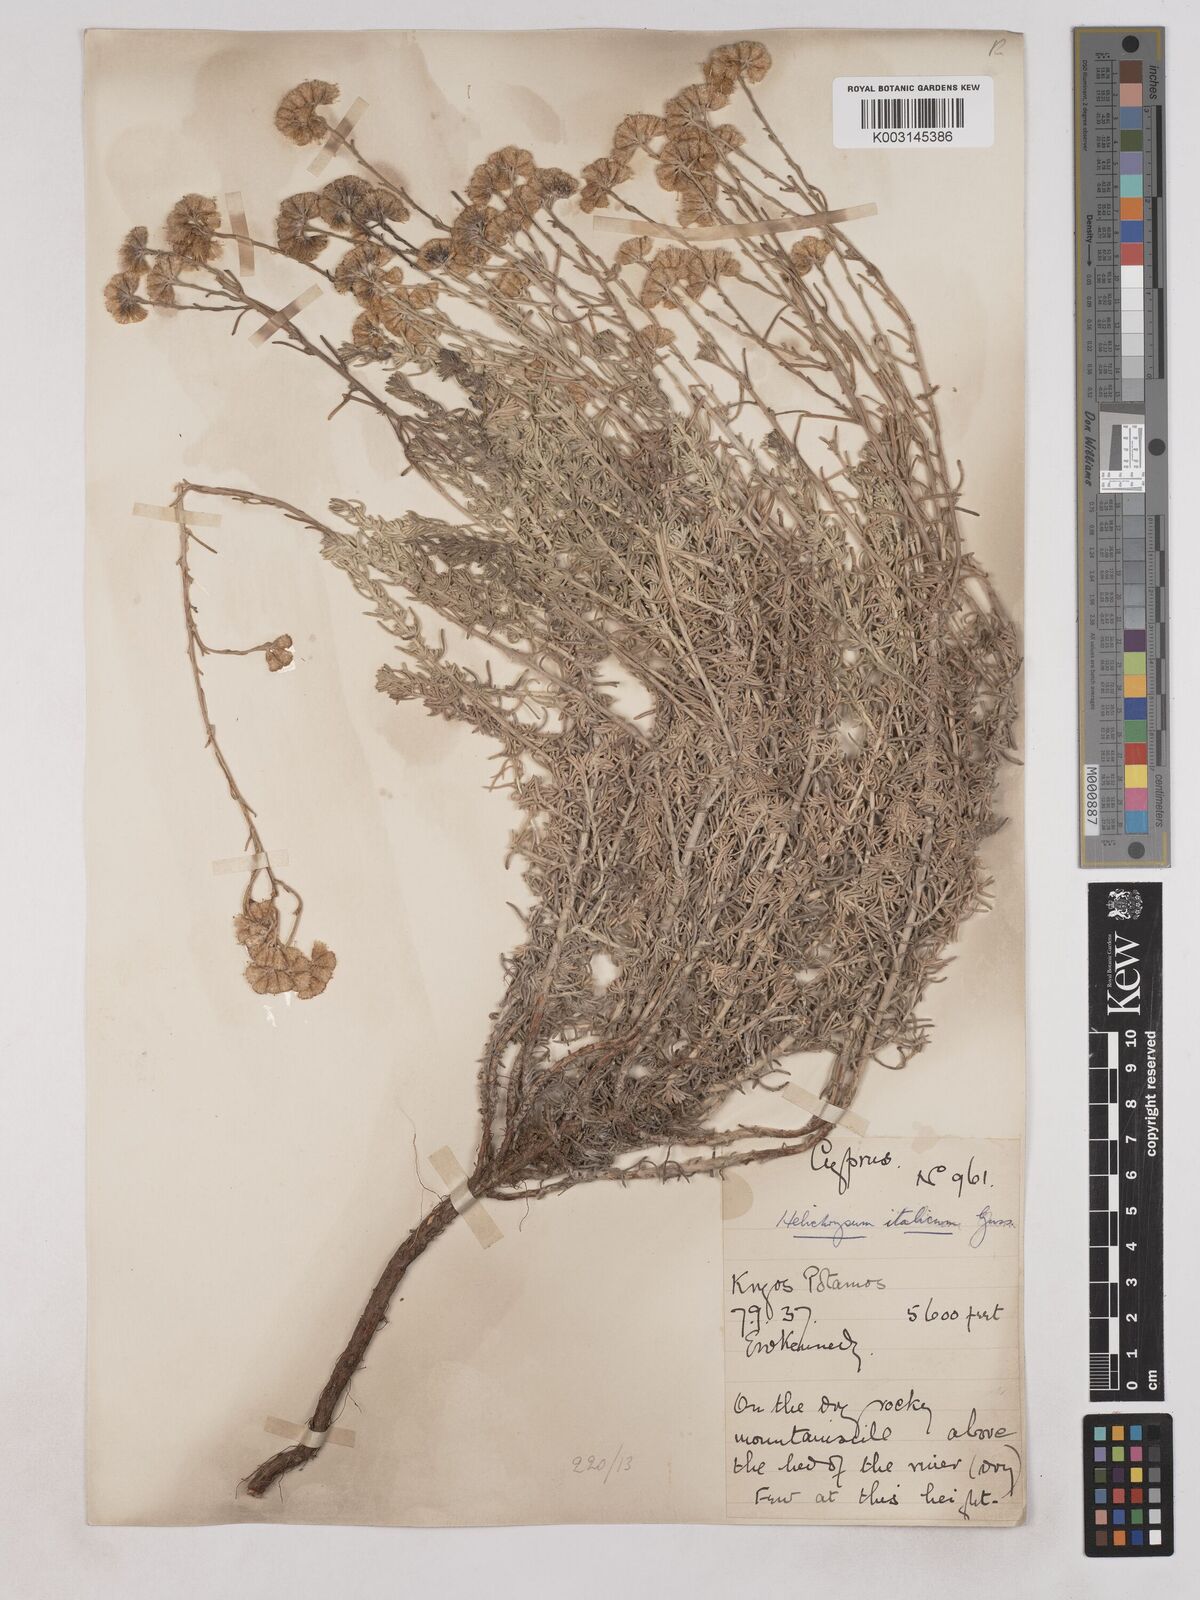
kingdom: Plantae
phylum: Tracheophyta
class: Magnoliopsida
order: Asterales
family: Asteraceae
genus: Helichrysum
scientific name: Helichrysum italicum
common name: Curryplant
